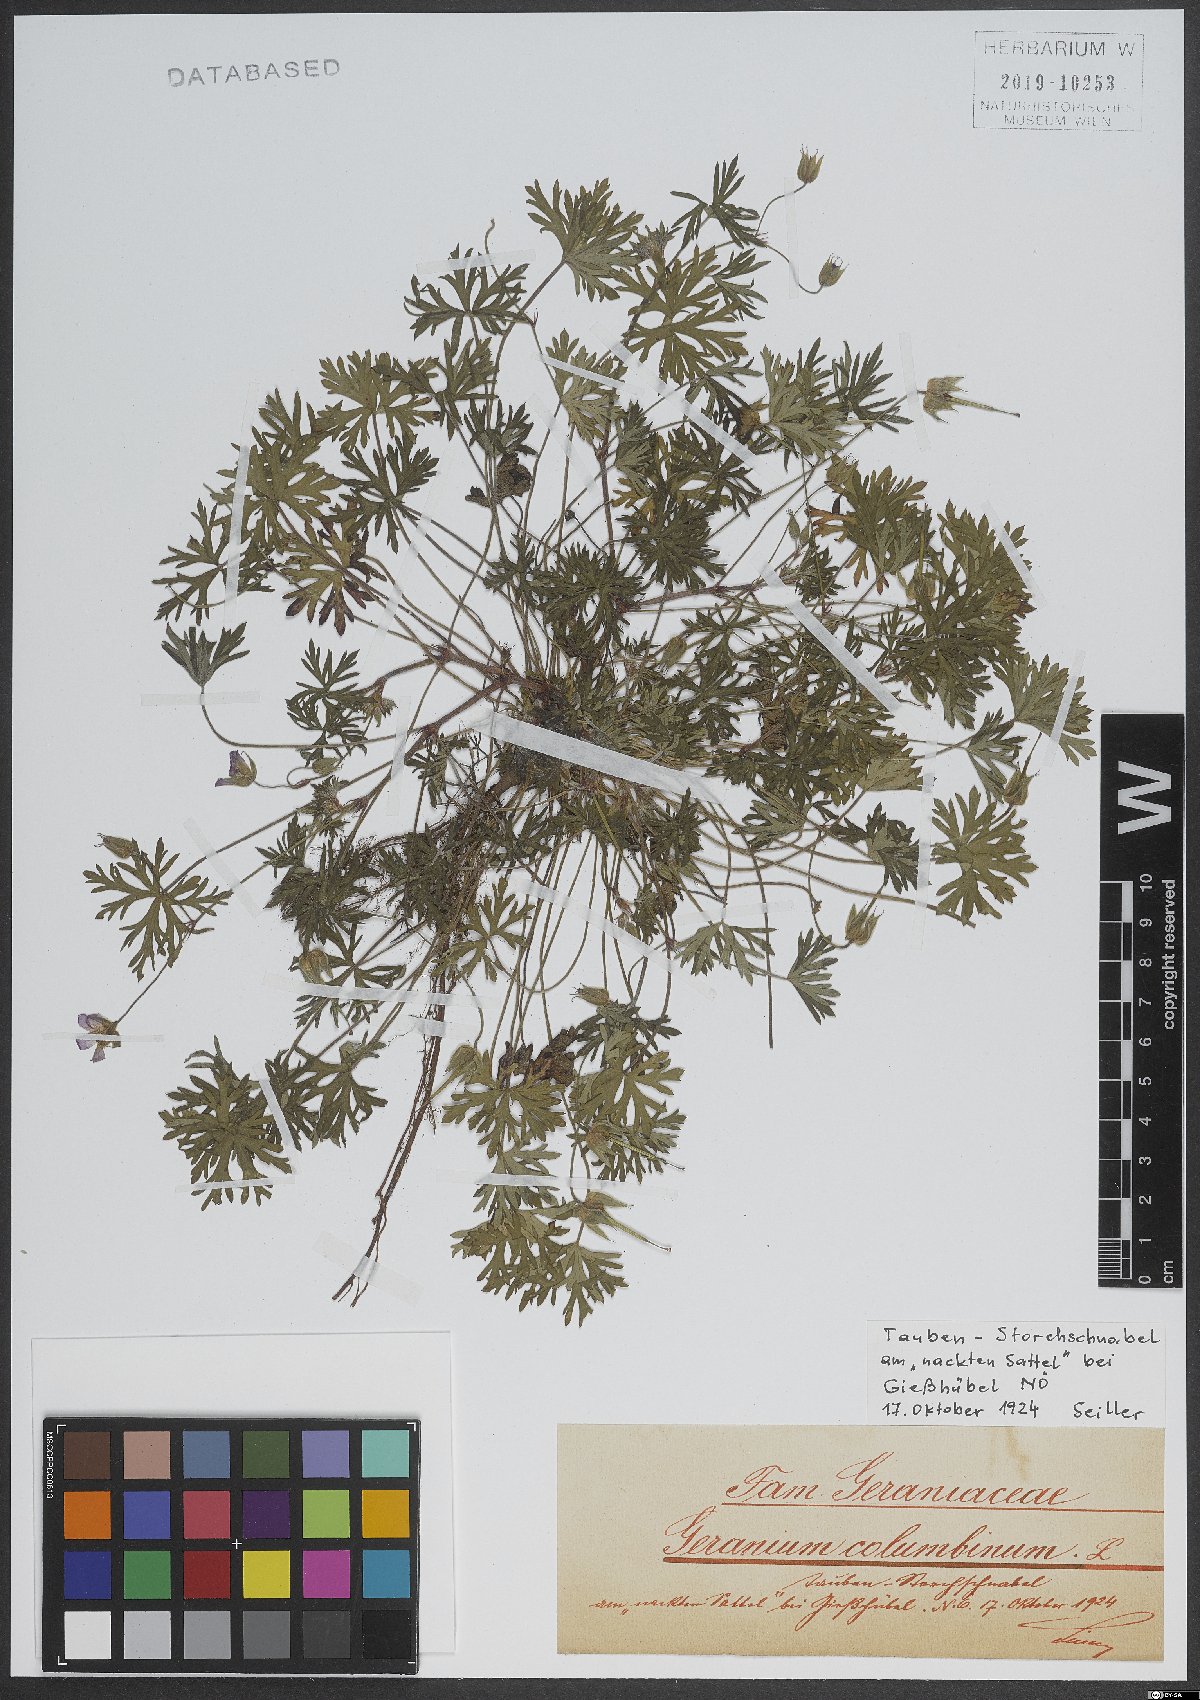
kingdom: Plantae
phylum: Tracheophyta
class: Magnoliopsida
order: Geraniales
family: Geraniaceae
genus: Geranium
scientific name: Geranium columbinum
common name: Long-stalked crane's-bill
